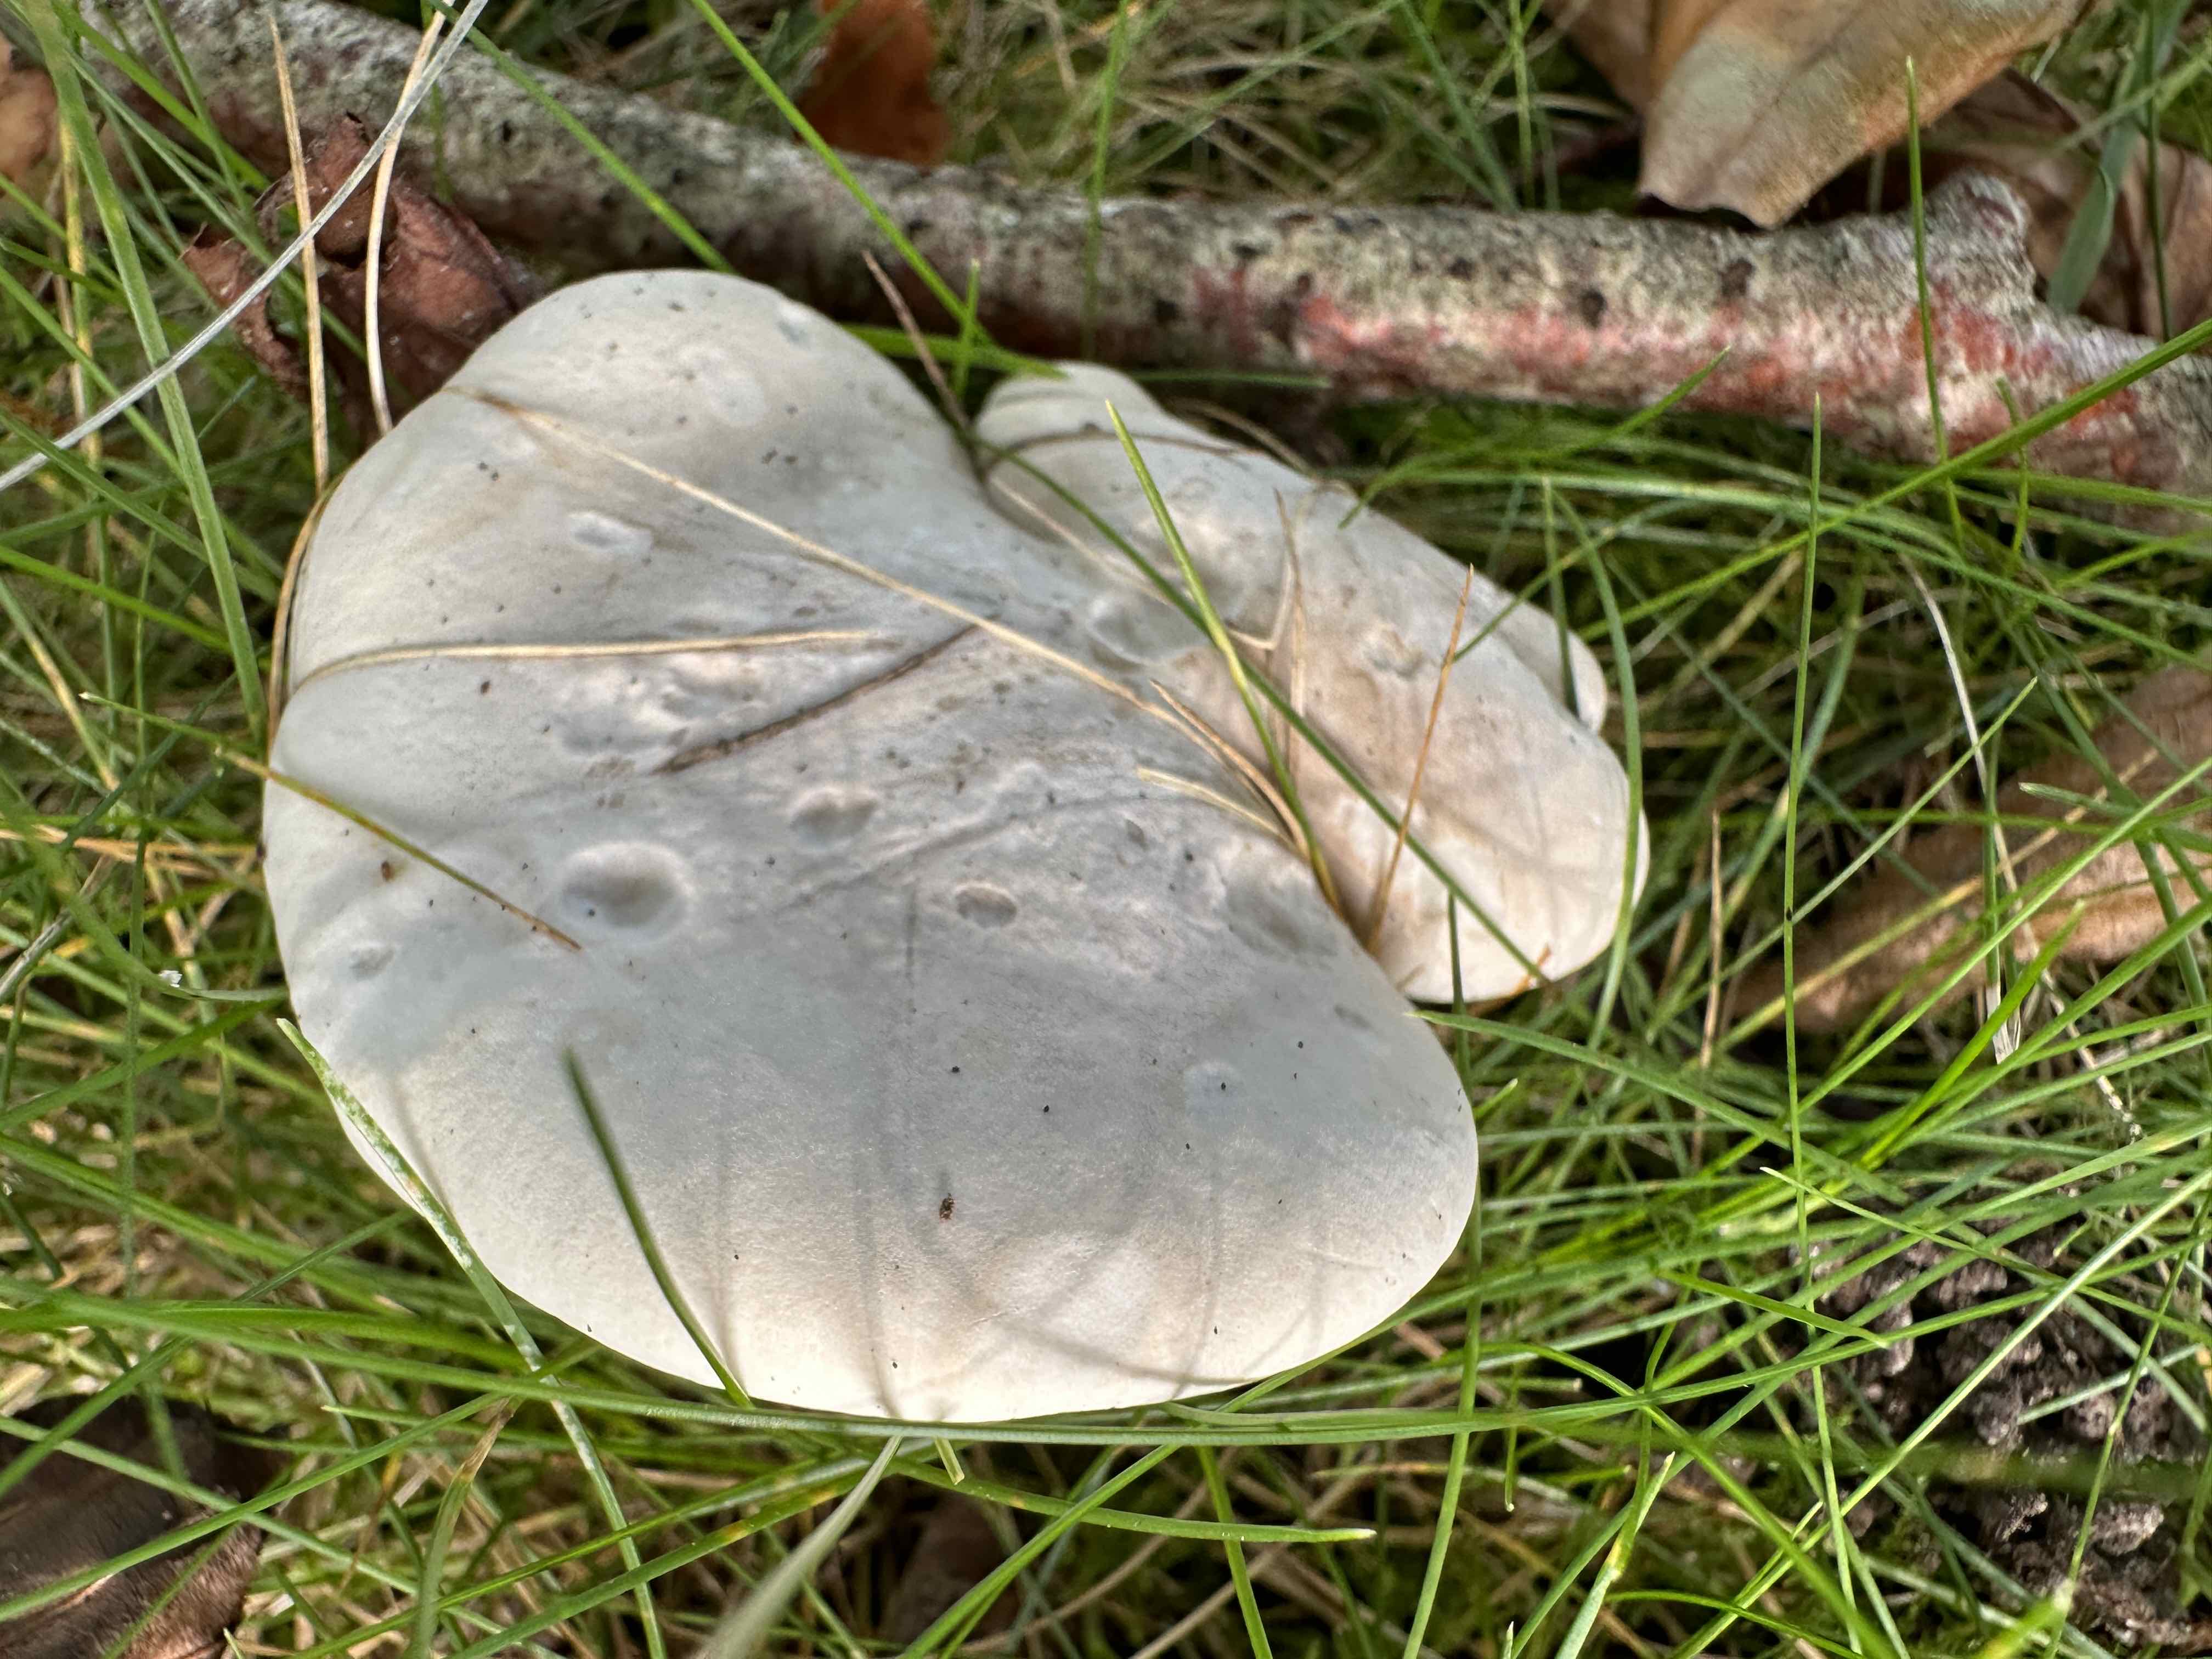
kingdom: Fungi
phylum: Basidiomycota
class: Agaricomycetes
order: Agaricales
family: Entolomataceae
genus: Clitopilus
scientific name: Clitopilus prunulus
